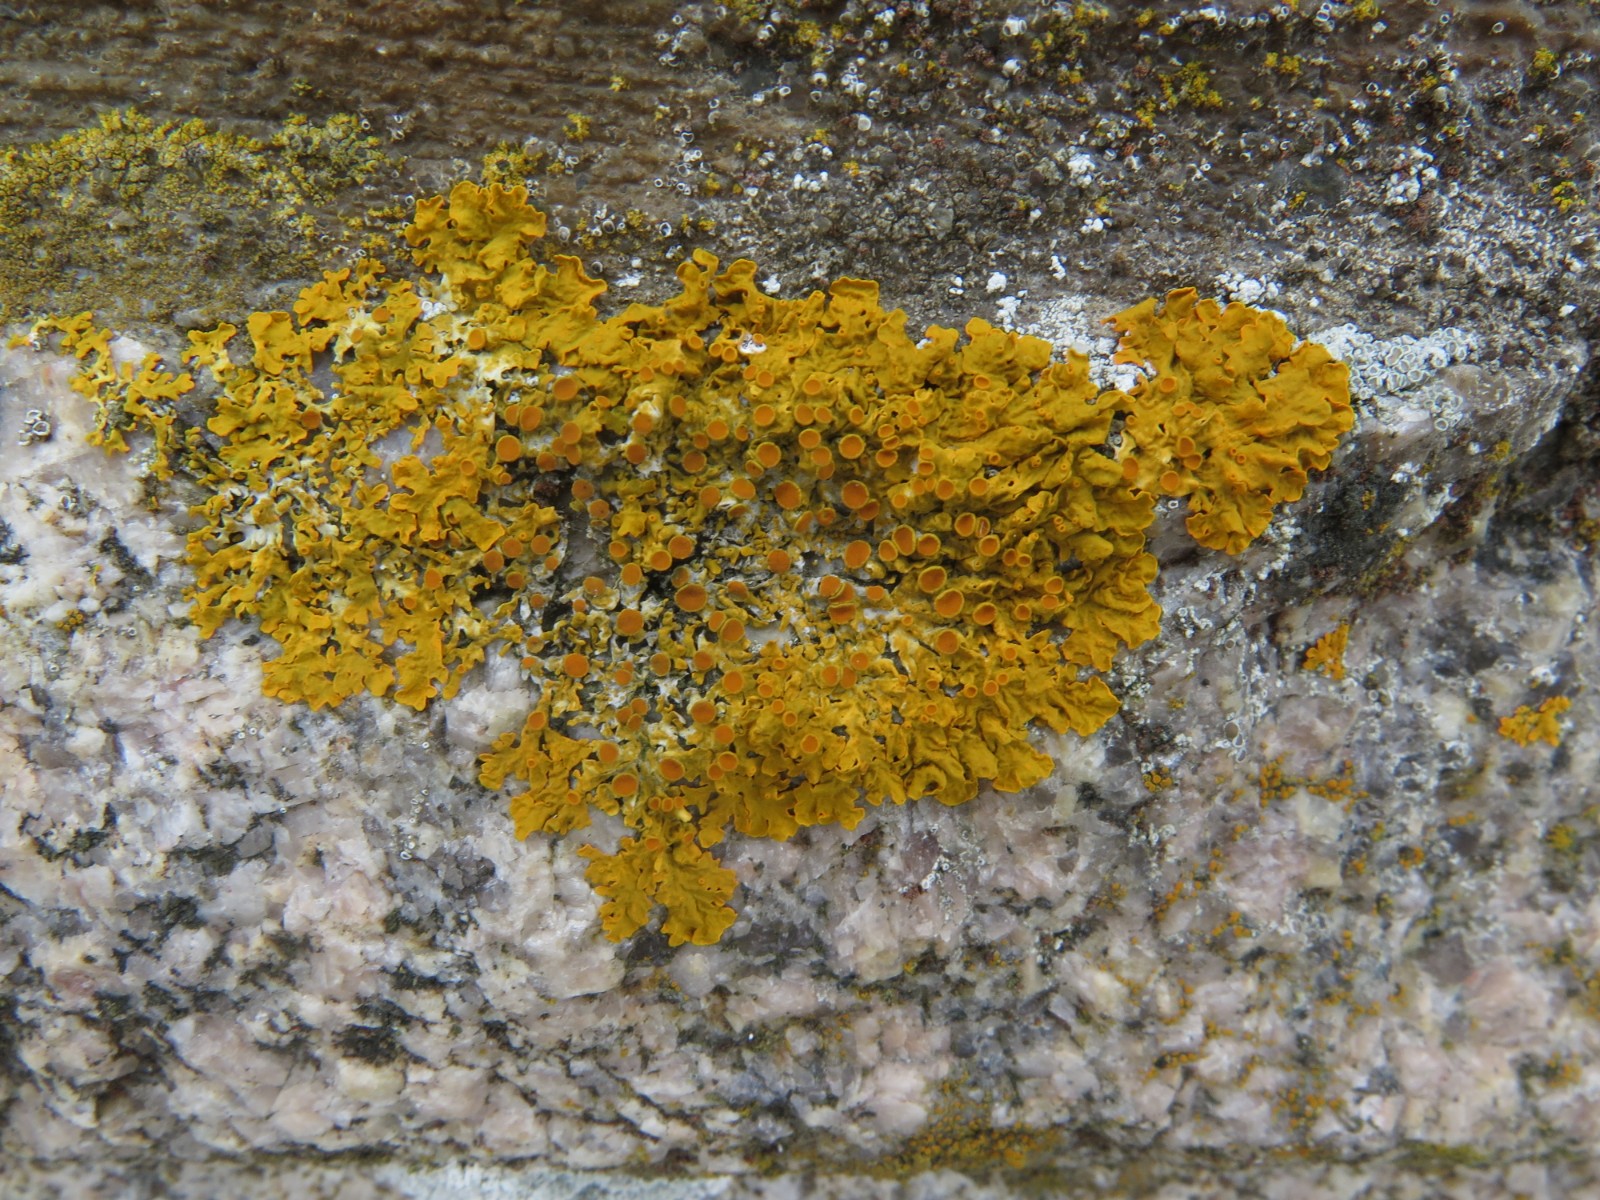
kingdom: Fungi
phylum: Ascomycota
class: Lecanoromycetes
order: Teloschistales
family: Teloschistaceae
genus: Xanthoria
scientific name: Xanthoria parietina
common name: almindelig væggelav
